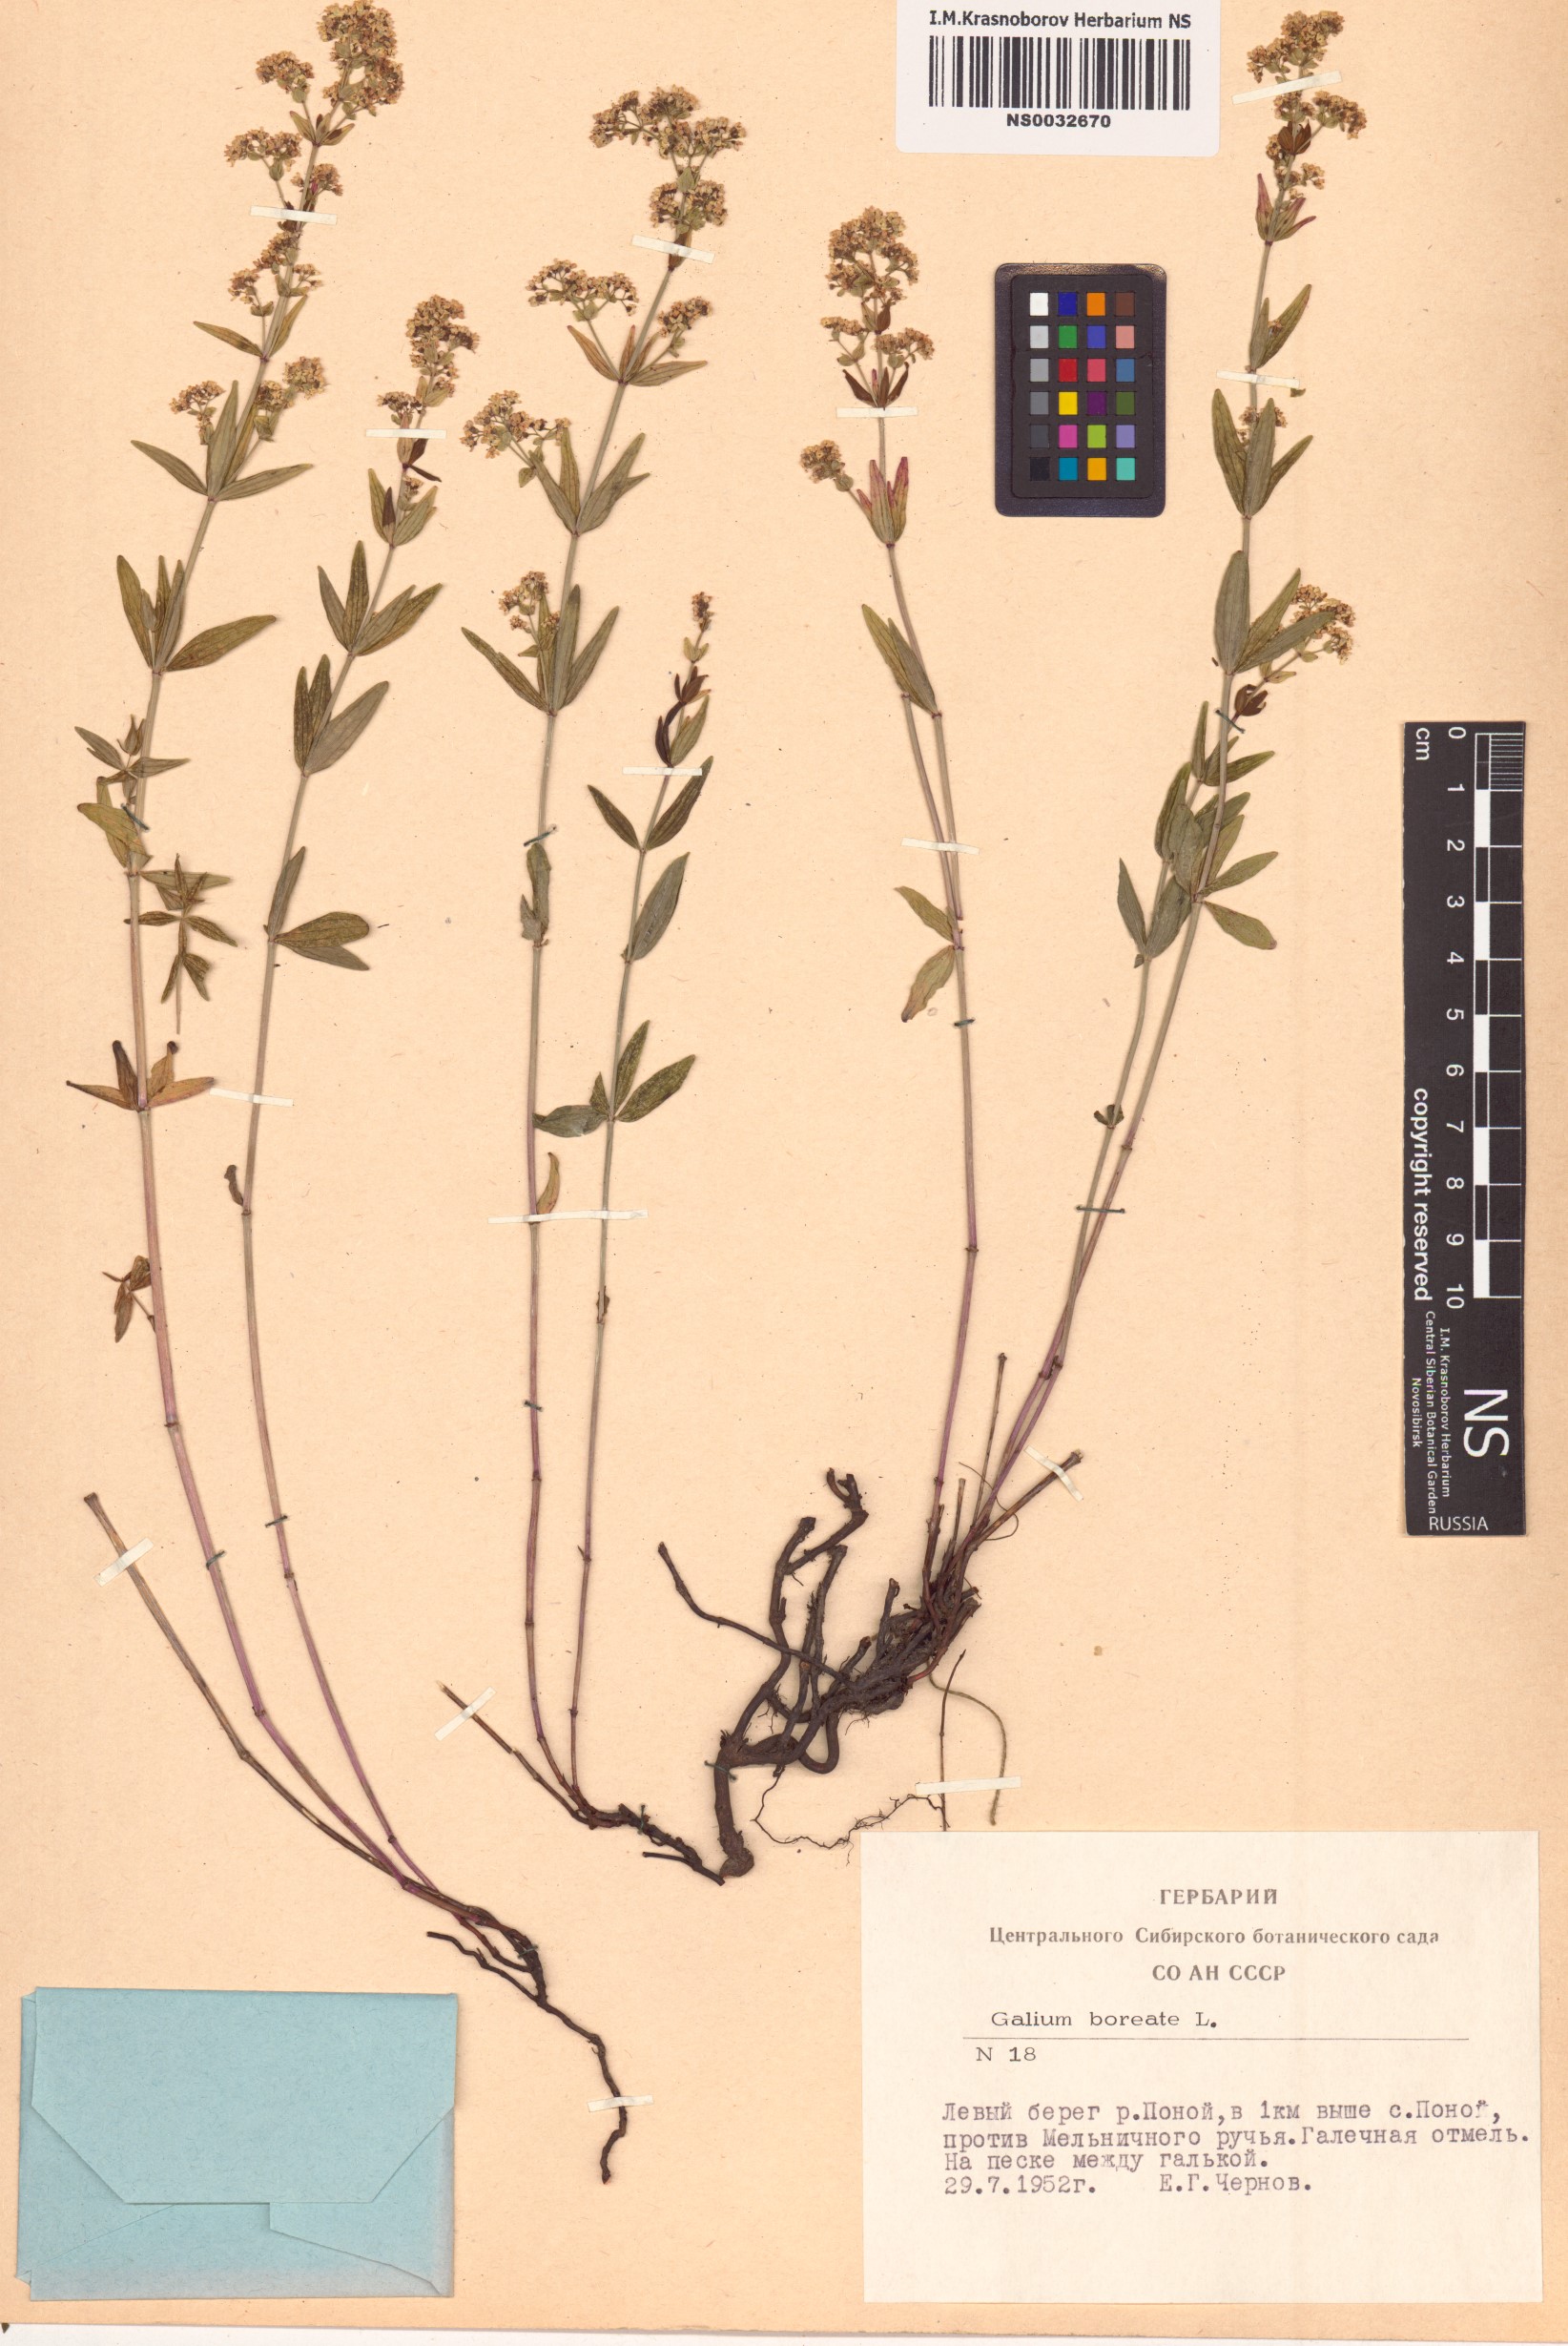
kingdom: Plantae
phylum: Tracheophyta
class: Magnoliopsida
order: Gentianales
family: Rubiaceae
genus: Galium
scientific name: Galium boreale
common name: Northern bedstraw
